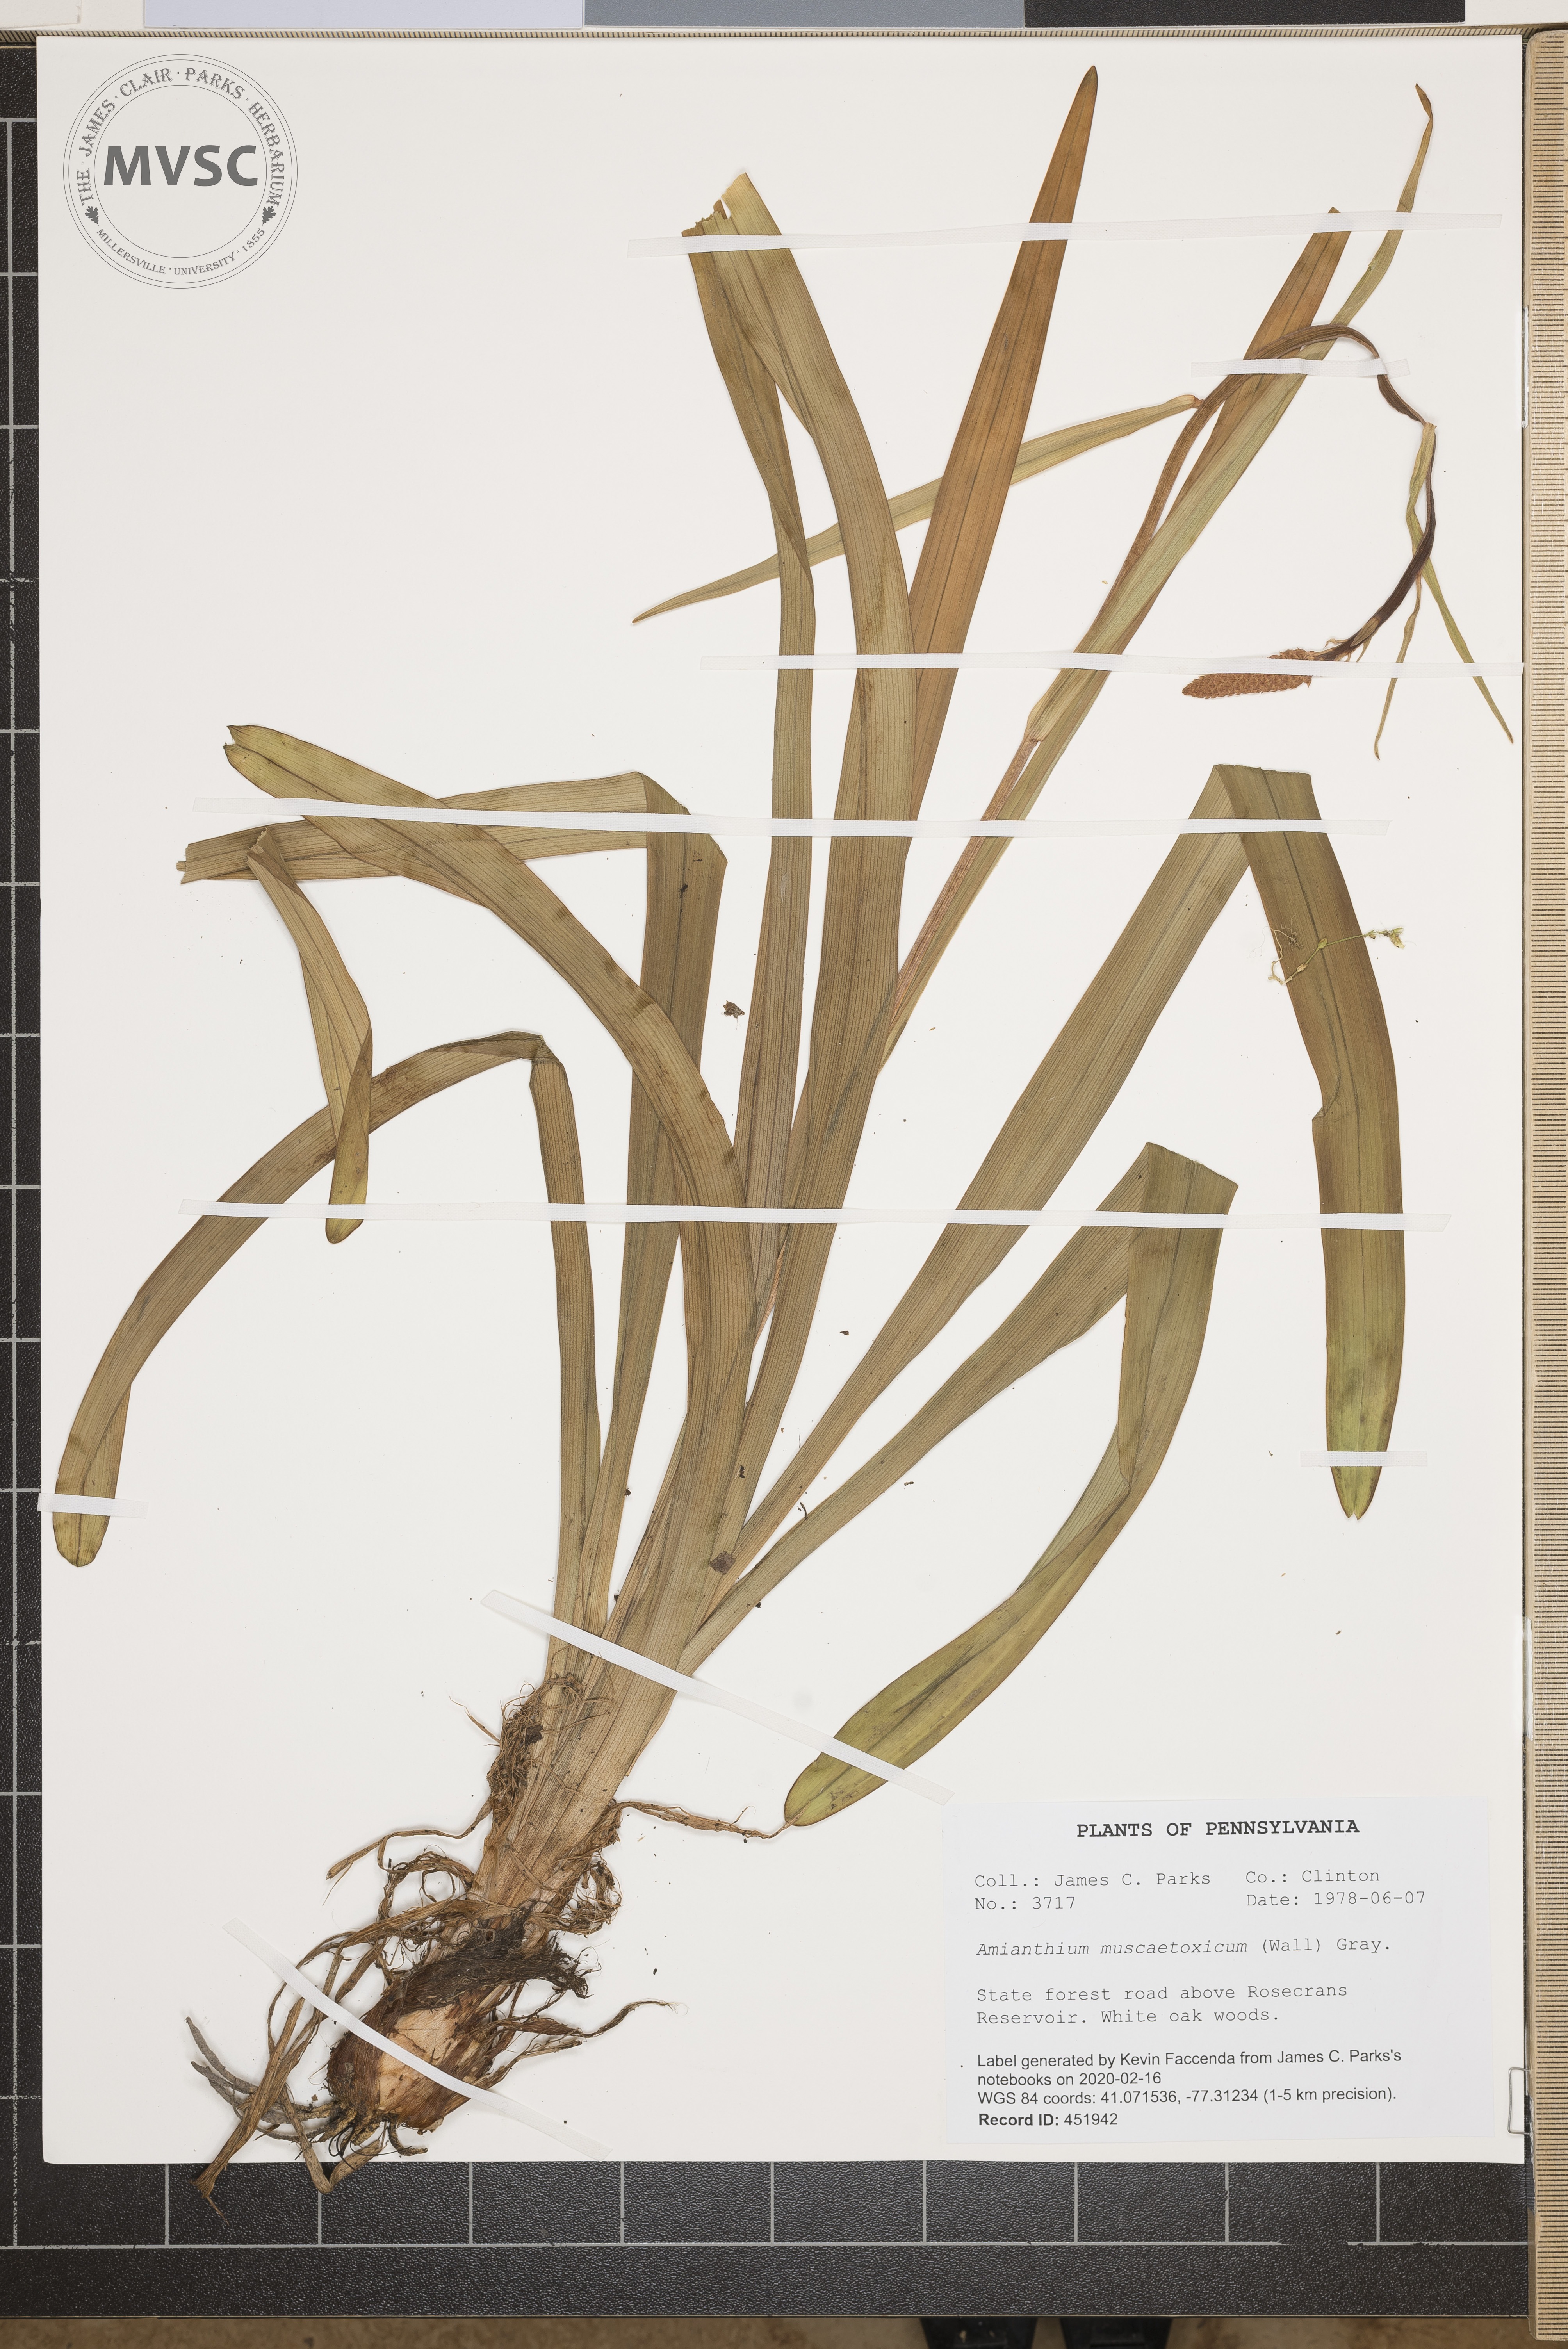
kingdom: Plantae
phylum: Tracheophyta
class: Liliopsida
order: Liliales
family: Melanthiaceae
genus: Amianthium
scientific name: Amianthium muscitoxicum
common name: Fly-poison
